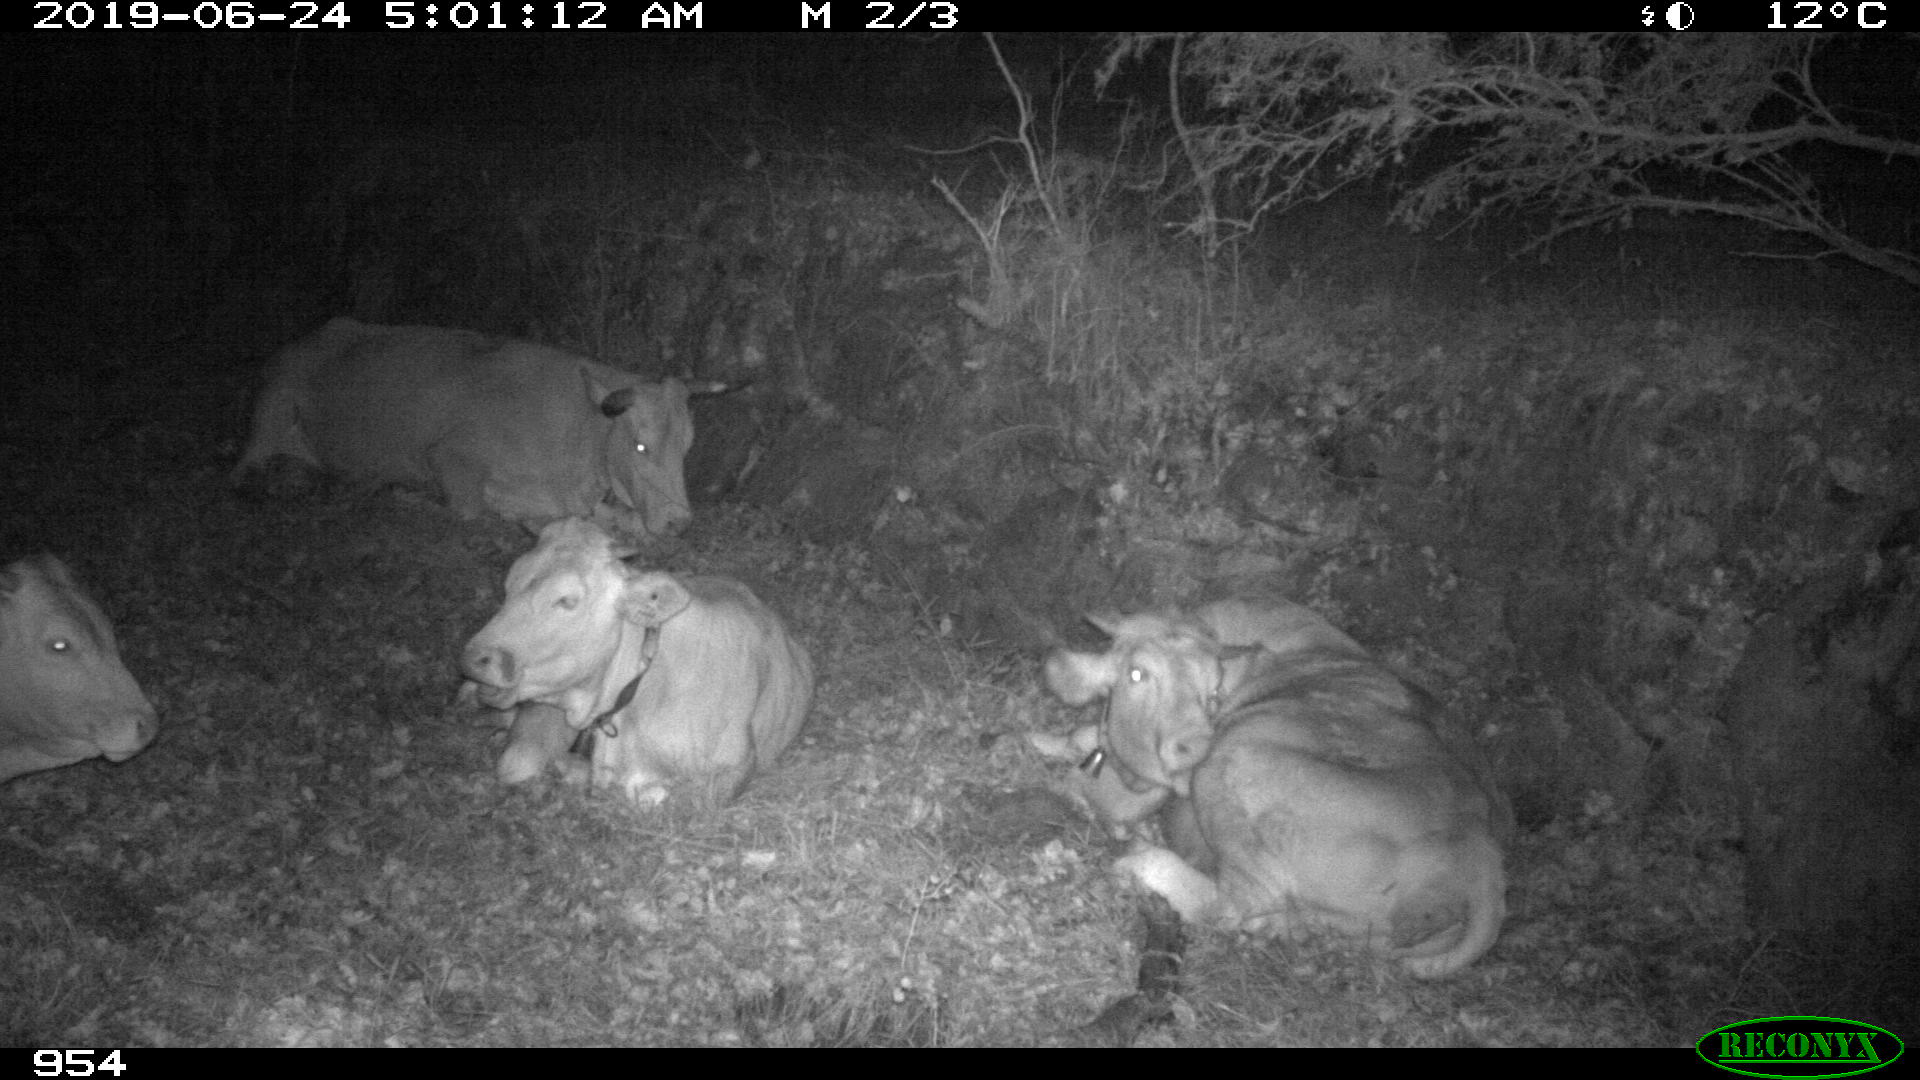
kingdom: Animalia
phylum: Chordata
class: Mammalia
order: Artiodactyla
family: Bovidae
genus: Bos
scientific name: Bos taurus
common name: Domesticated cattle
